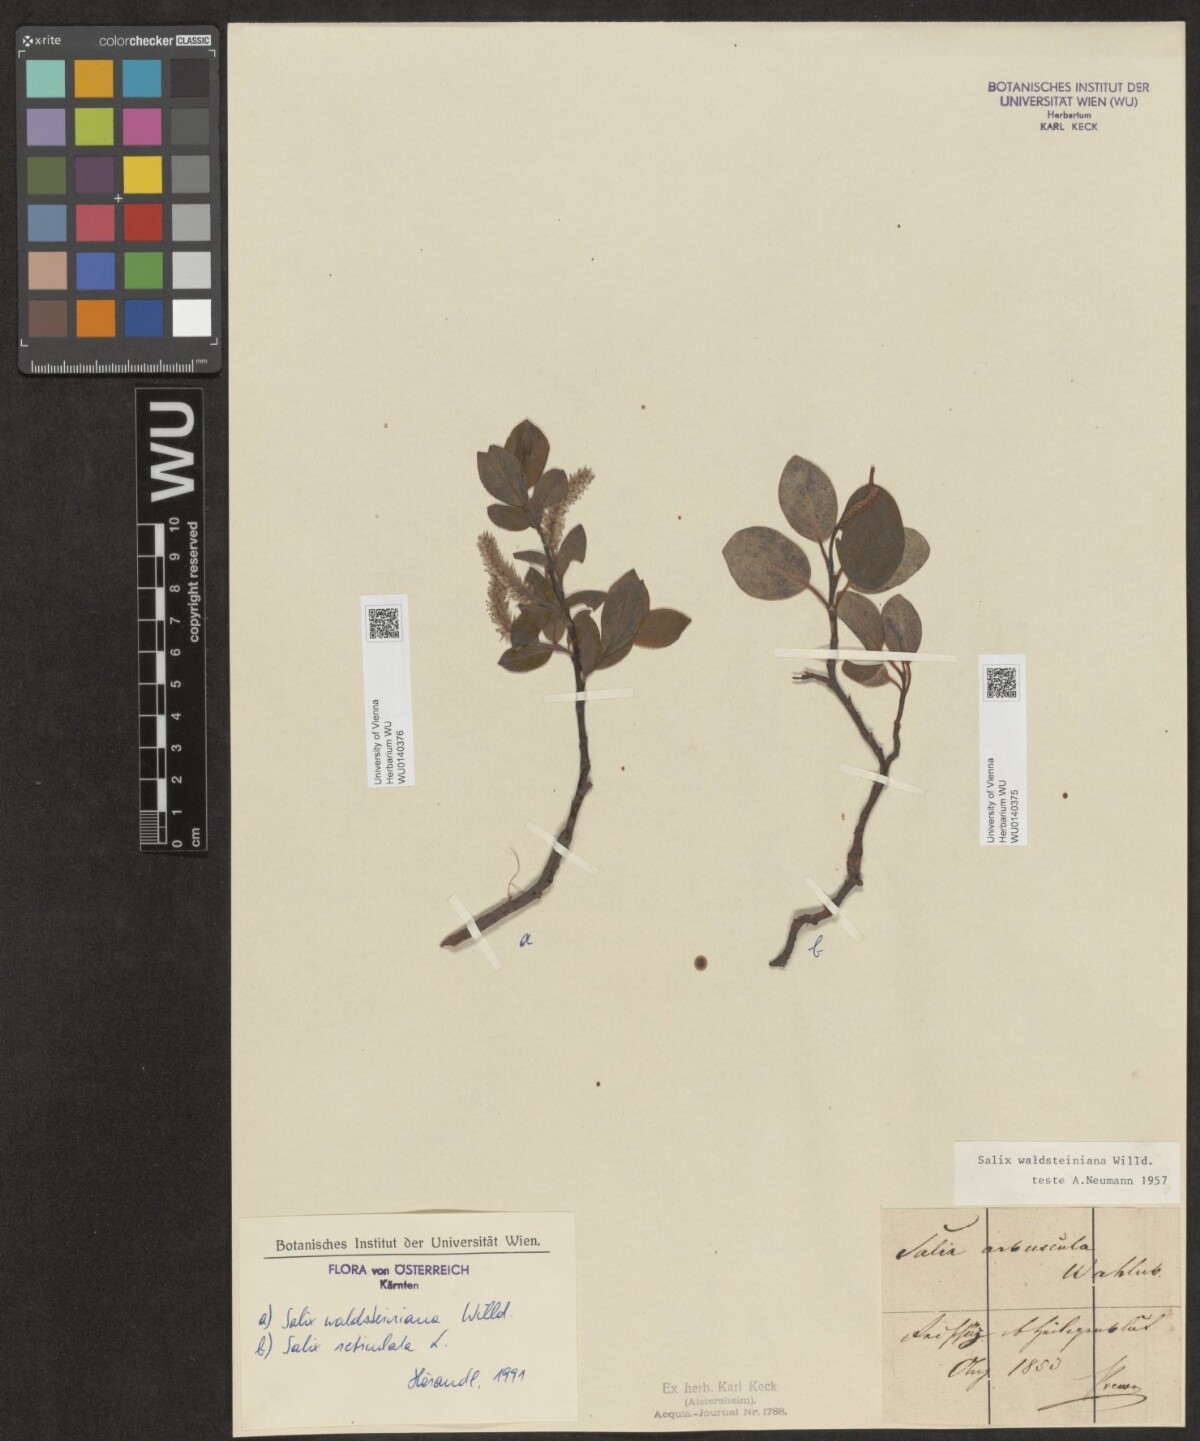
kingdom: Plantae
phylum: Tracheophyta
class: Magnoliopsida
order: Malpighiales
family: Salicaceae
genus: Salix
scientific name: Salix waldsteiniana
